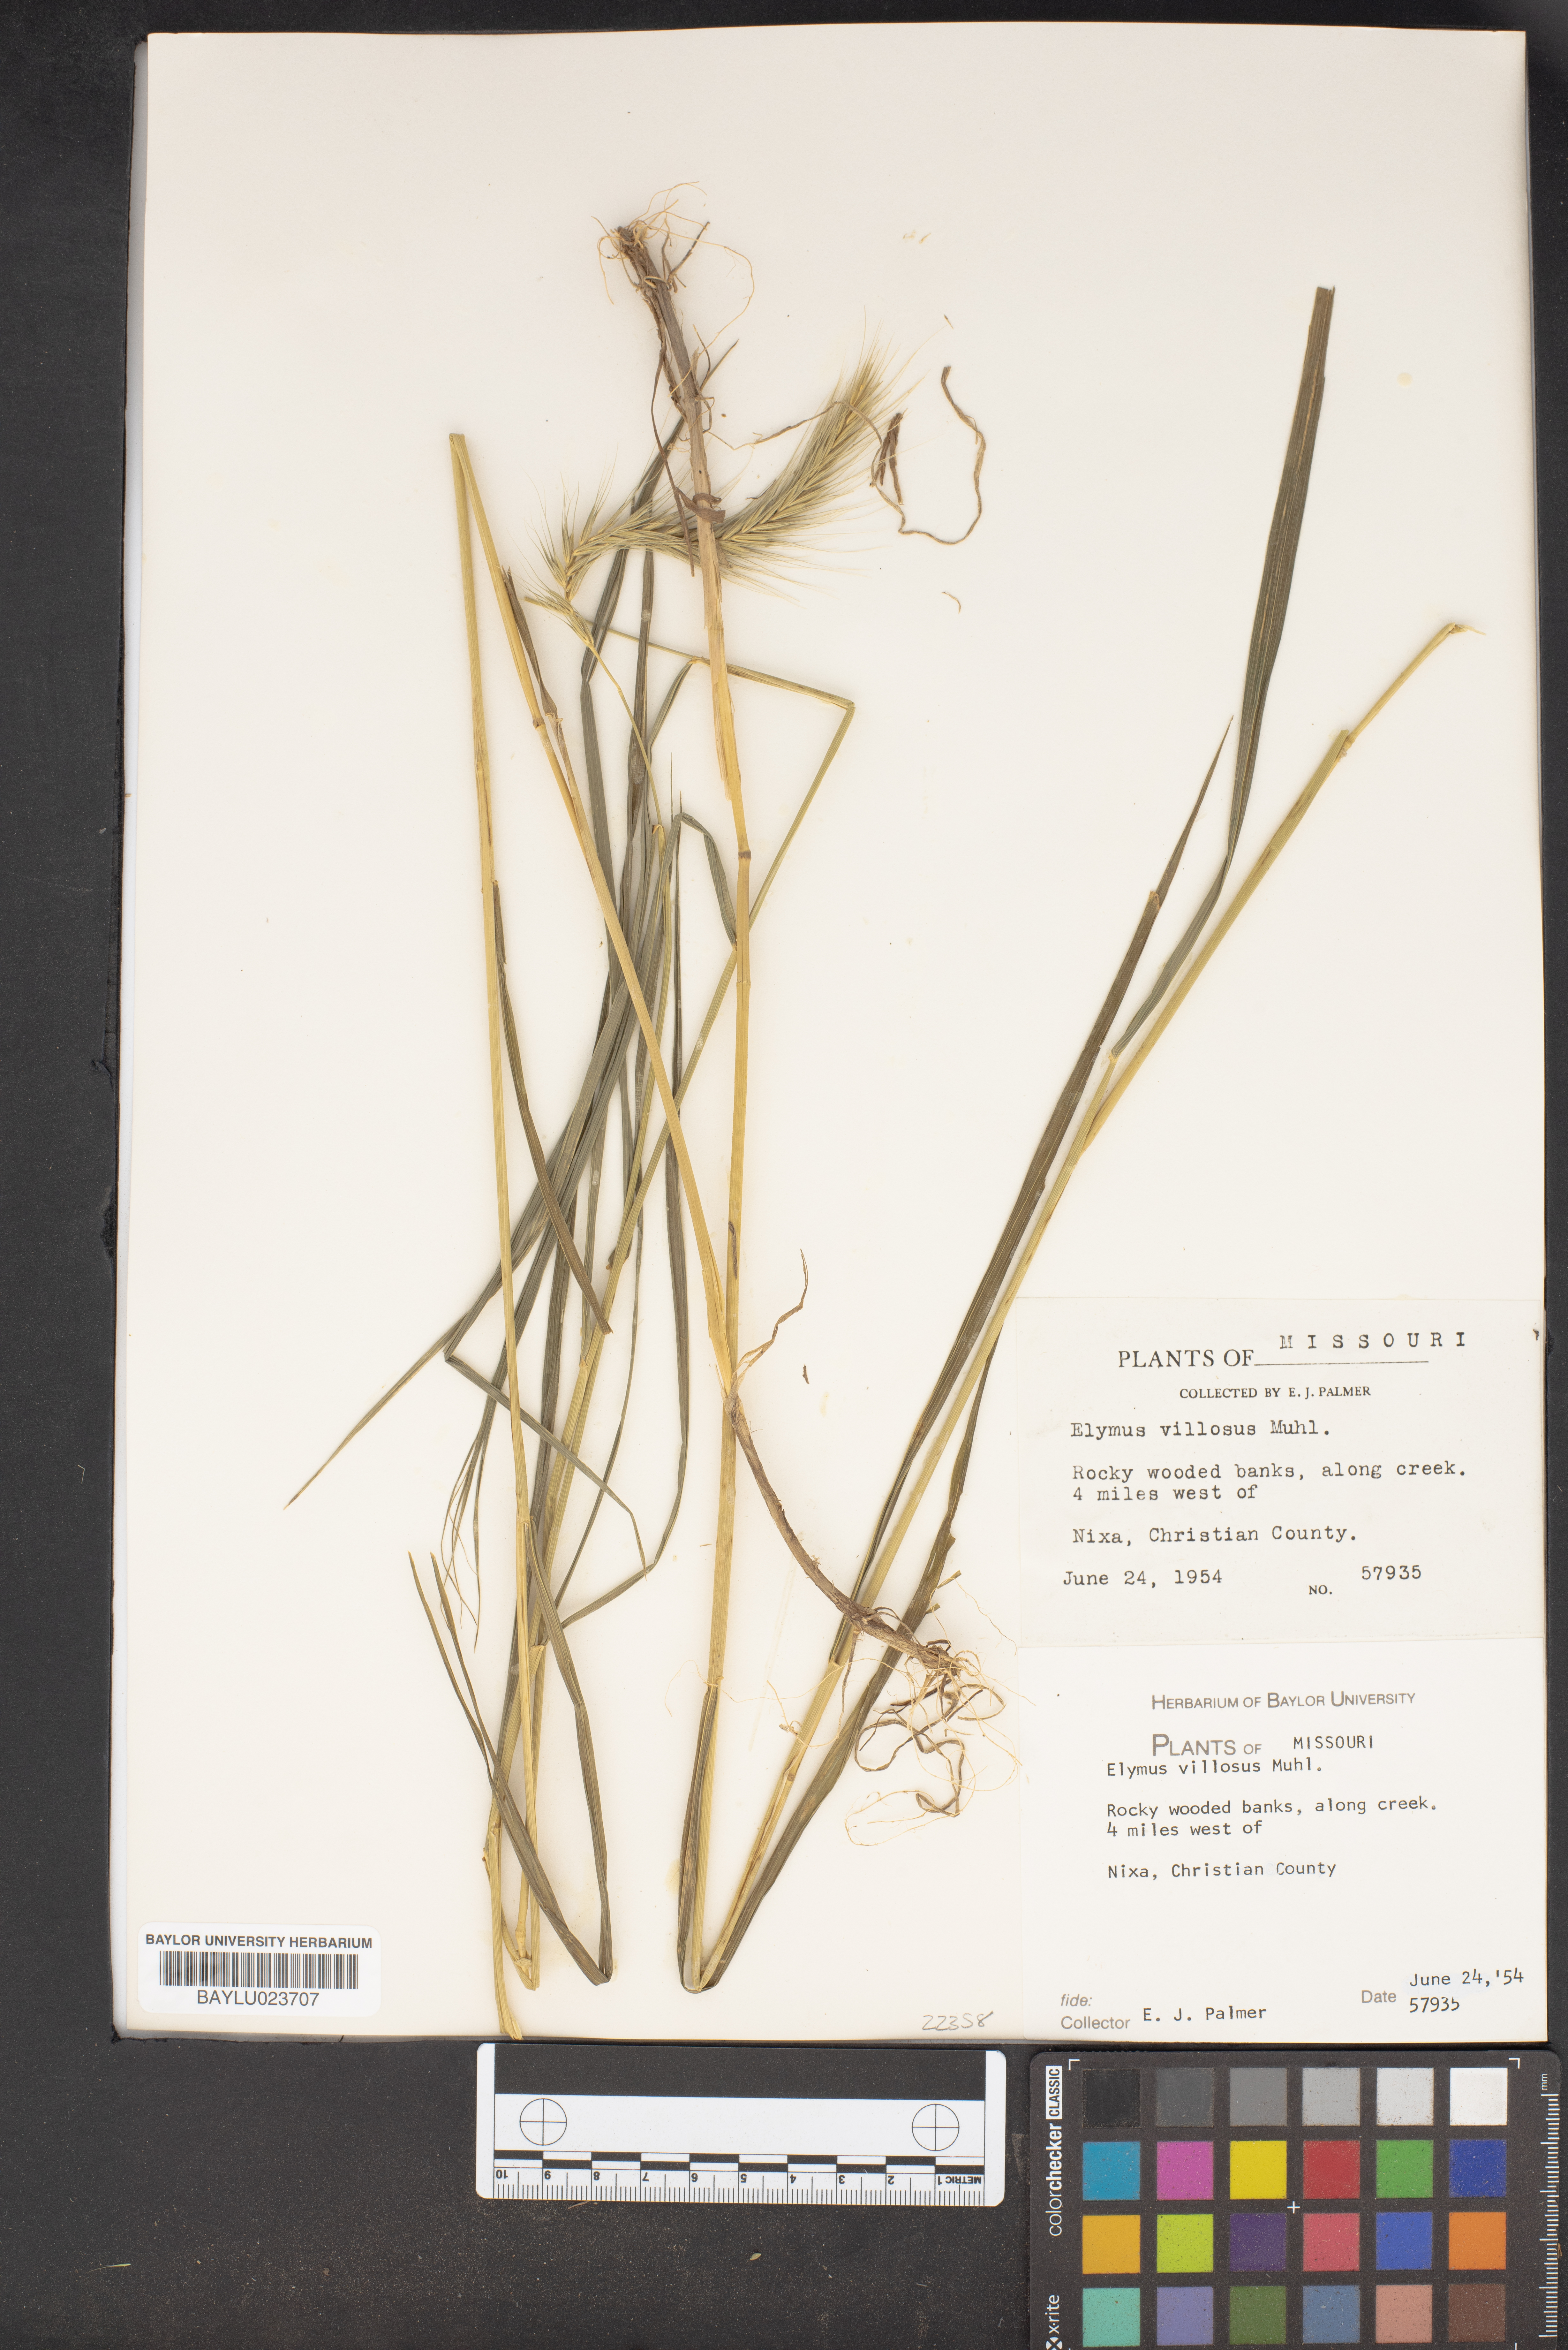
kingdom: Plantae
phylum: Tracheophyta
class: Liliopsida
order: Poales
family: Poaceae
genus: Elymus
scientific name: Elymus villosus
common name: Downy wild rye
